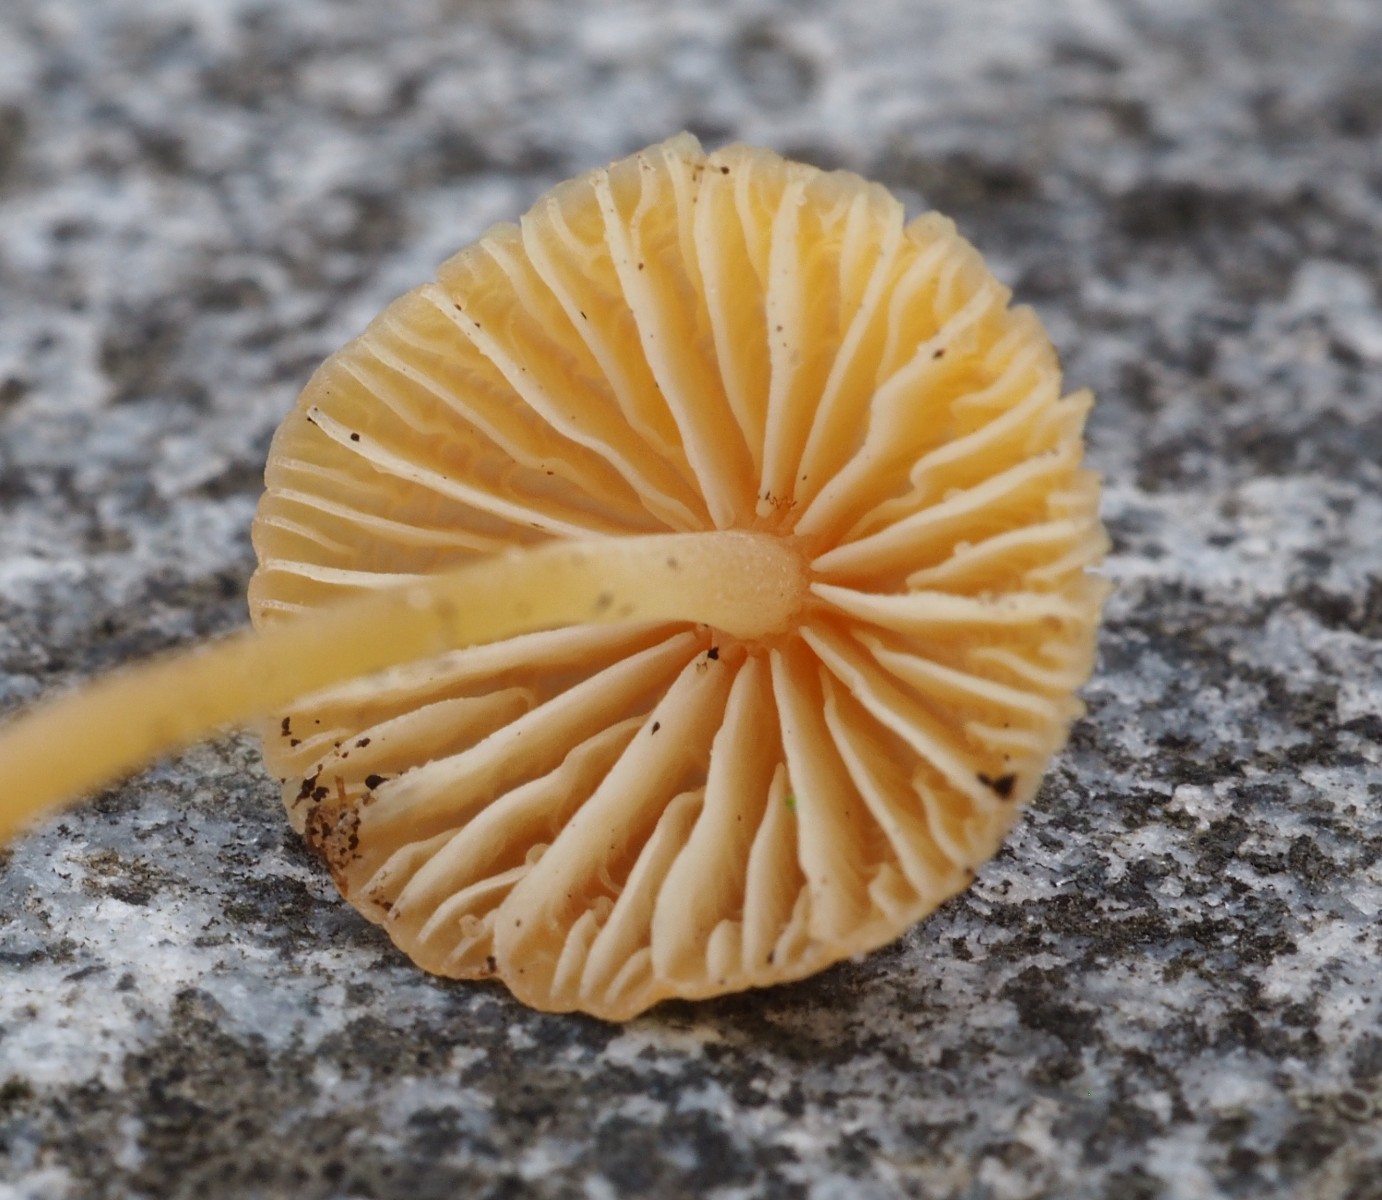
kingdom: Fungi
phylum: Basidiomycota
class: Agaricomycetes
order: Agaricales
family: Mycenaceae
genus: Mycena
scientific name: Mycena acicula
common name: orange huesvamp
